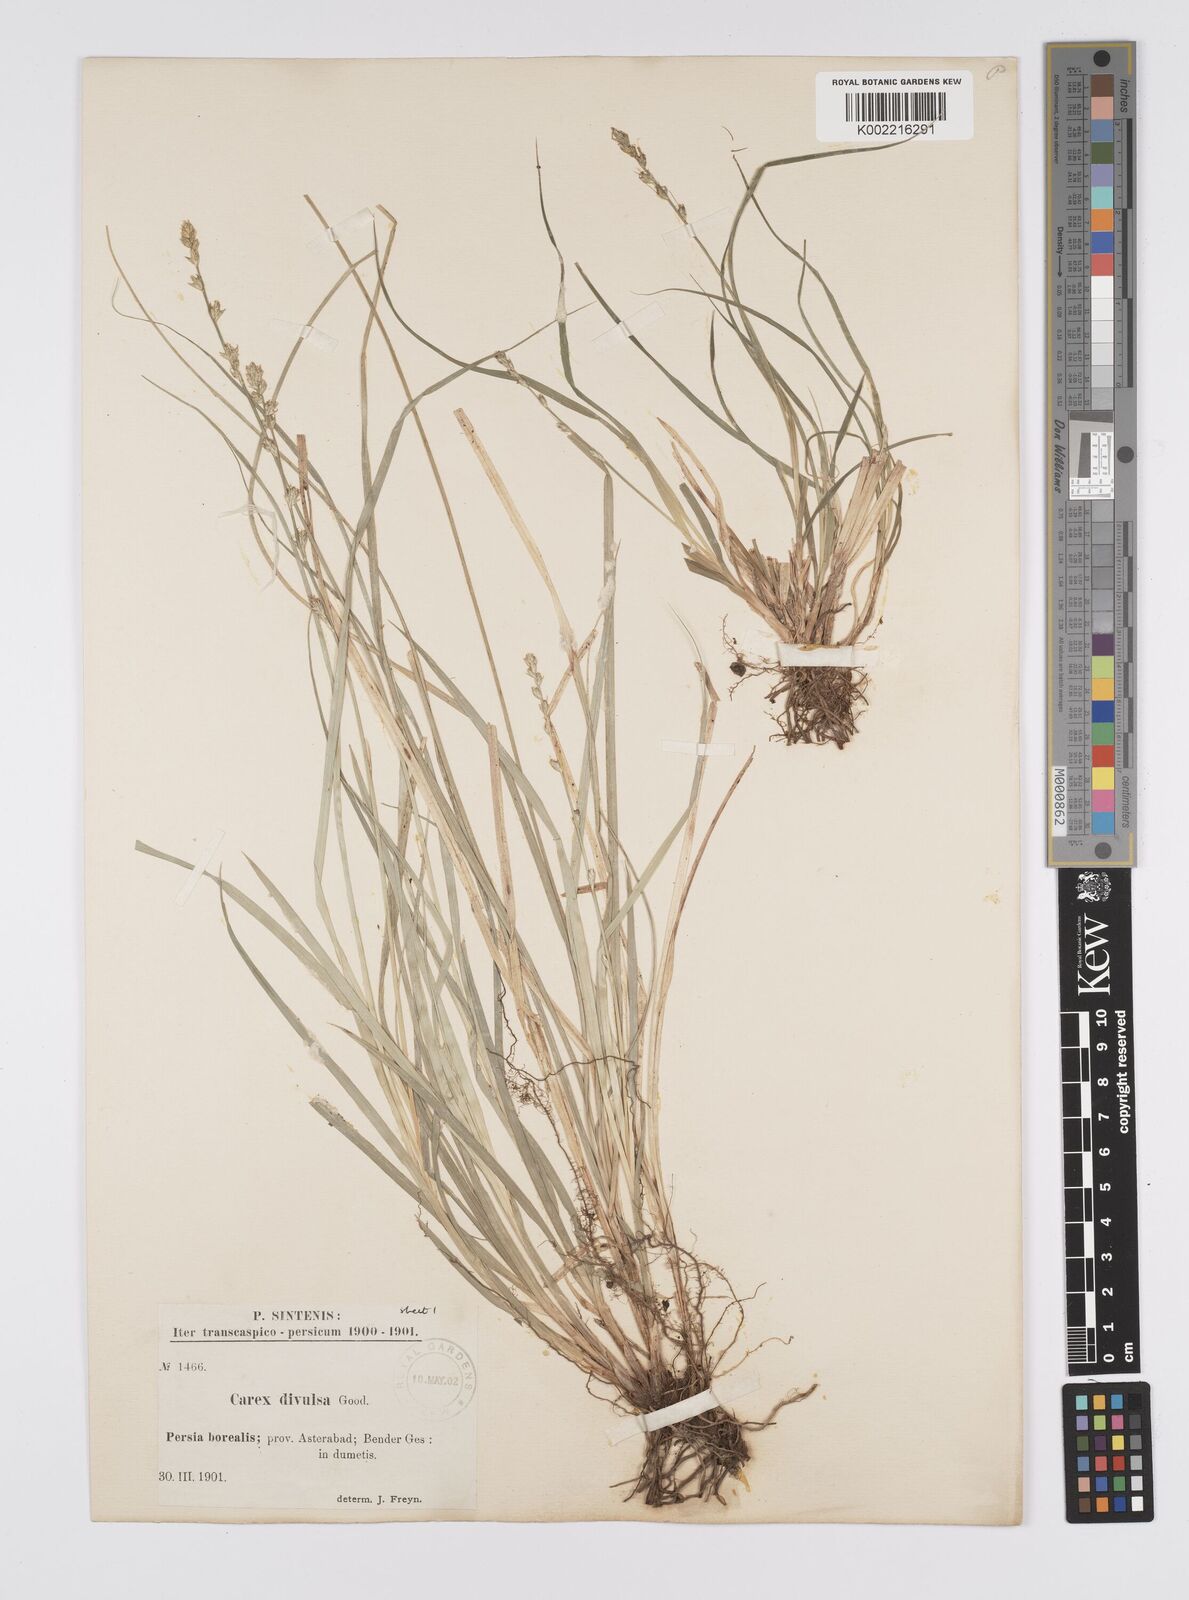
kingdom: Plantae
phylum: Tracheophyta
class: Liliopsida
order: Poales
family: Cyperaceae
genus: Carex
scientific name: Carex divulsa
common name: Grassland sedge
